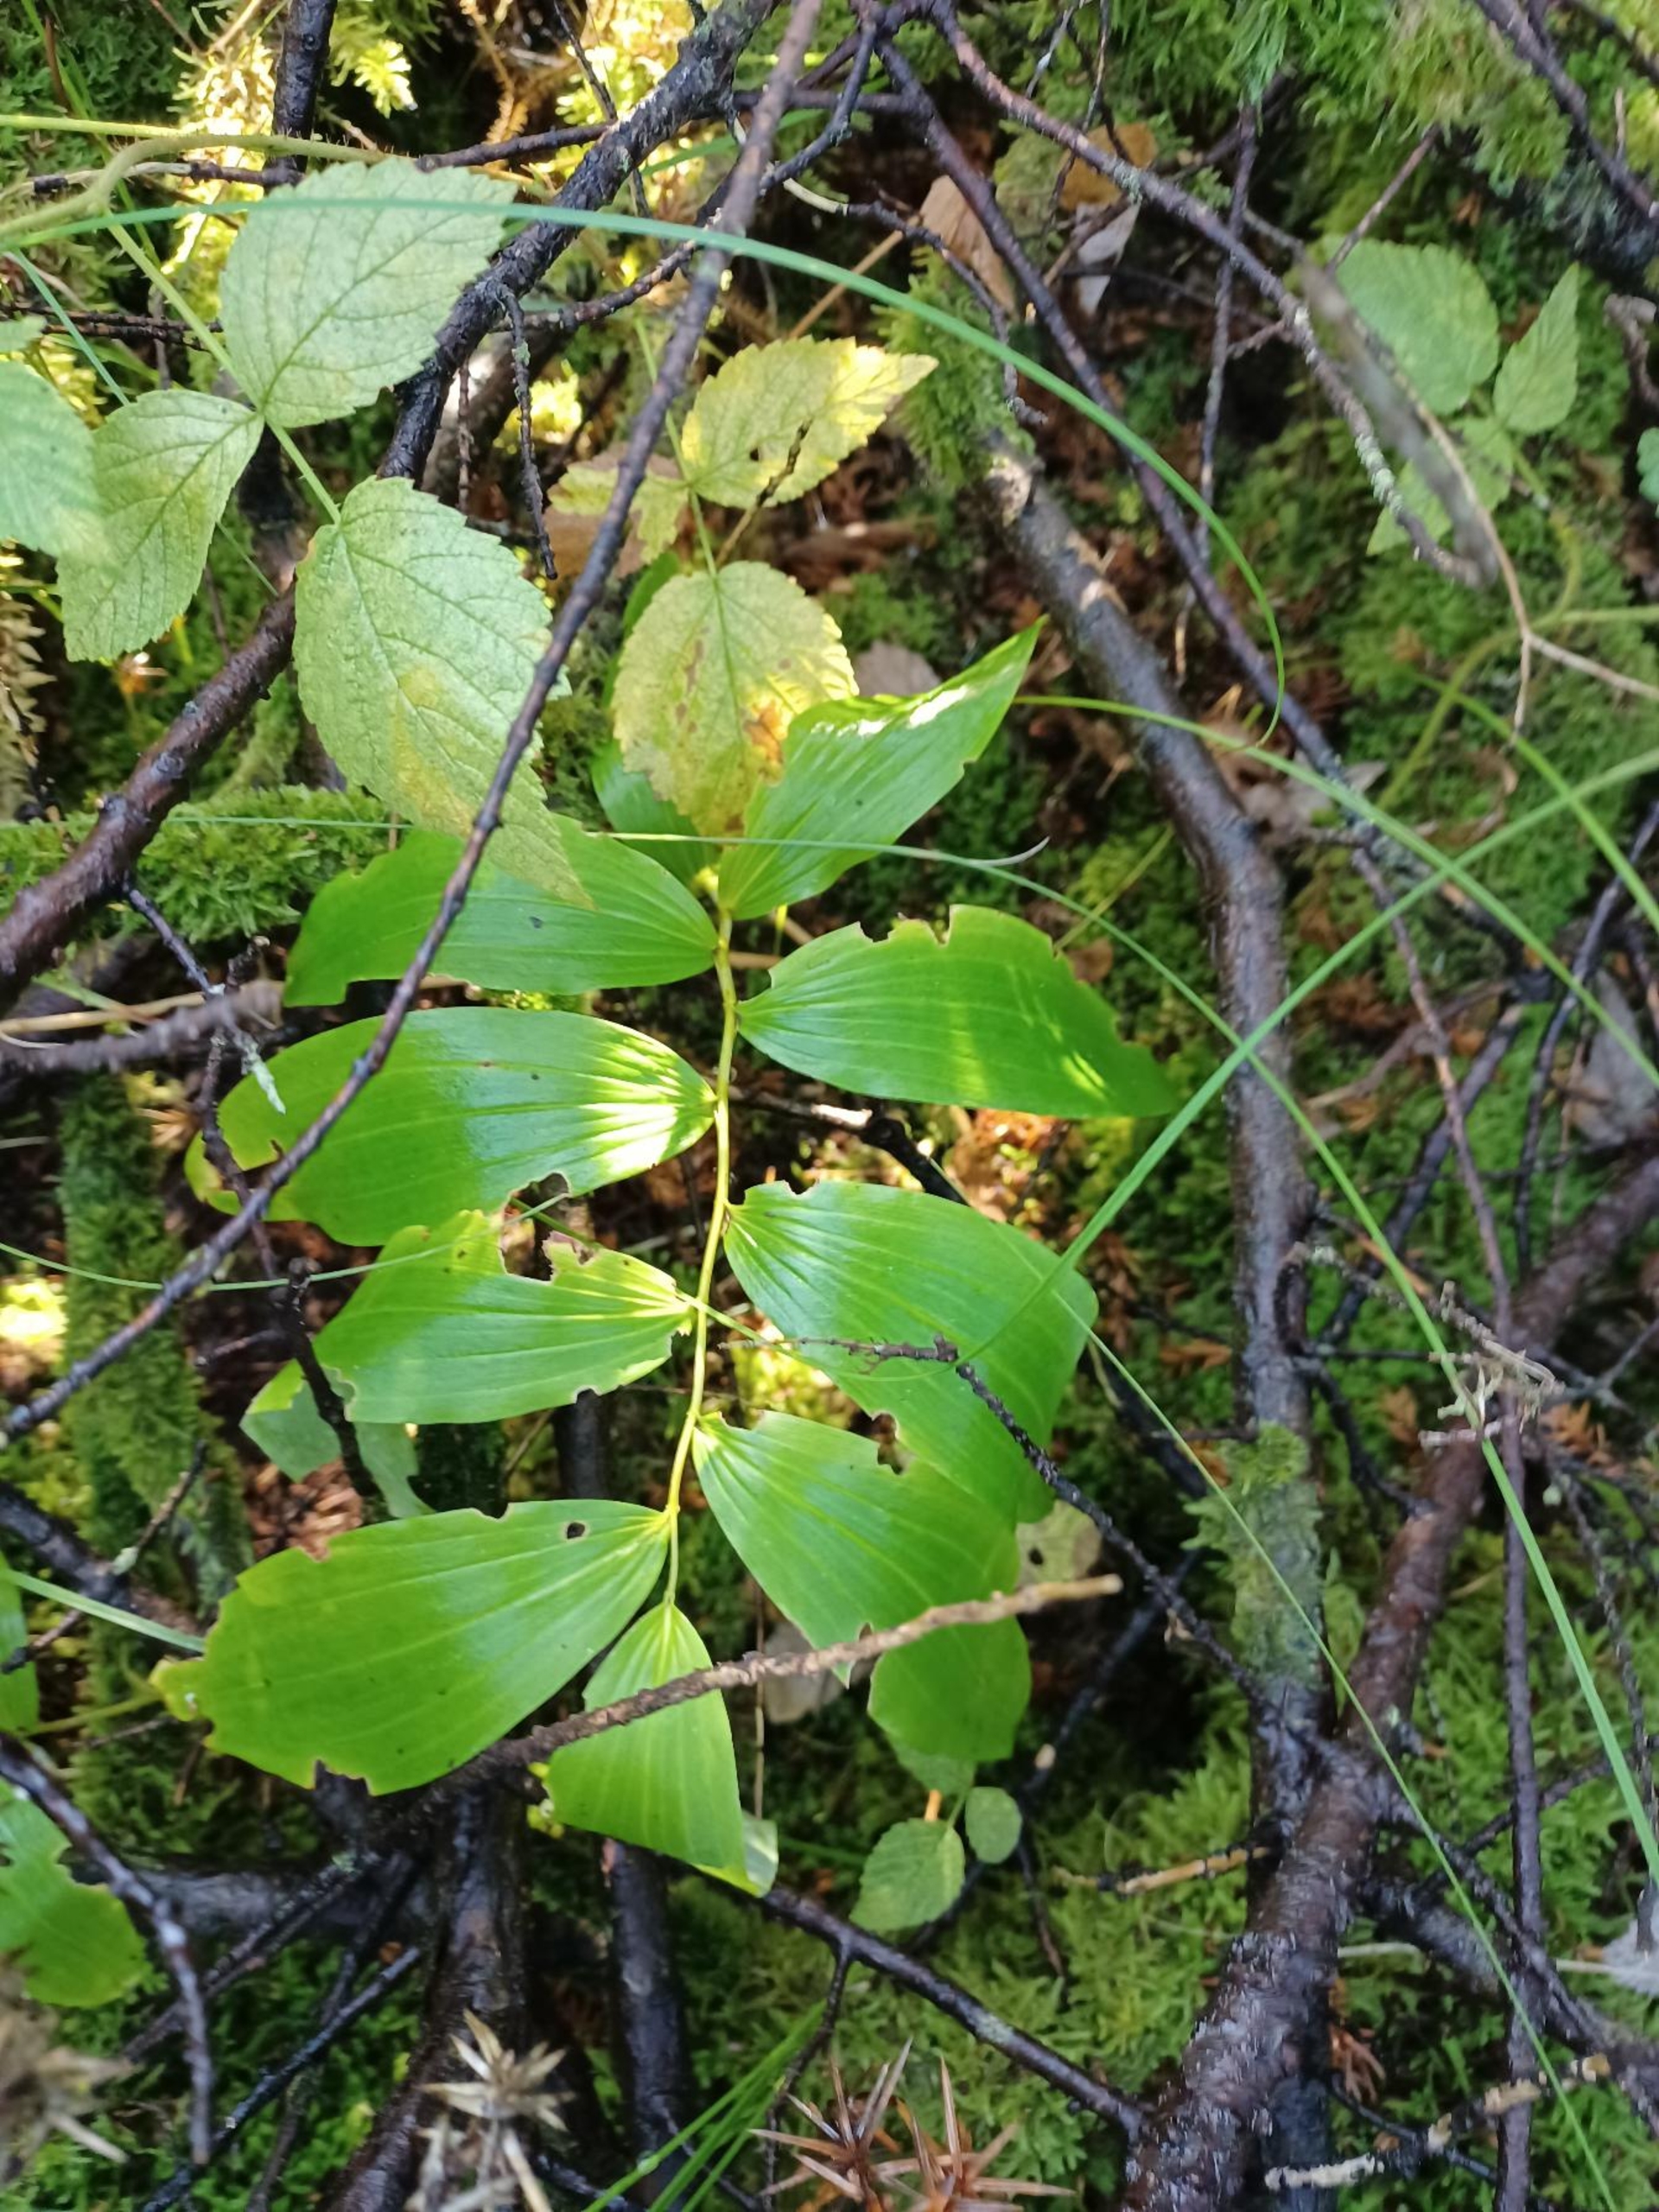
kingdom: Plantae
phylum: Tracheophyta
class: Liliopsida
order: Asparagales
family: Asparagaceae
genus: Polygonatum
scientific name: Polygonatum multiflorum
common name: Stor konval
